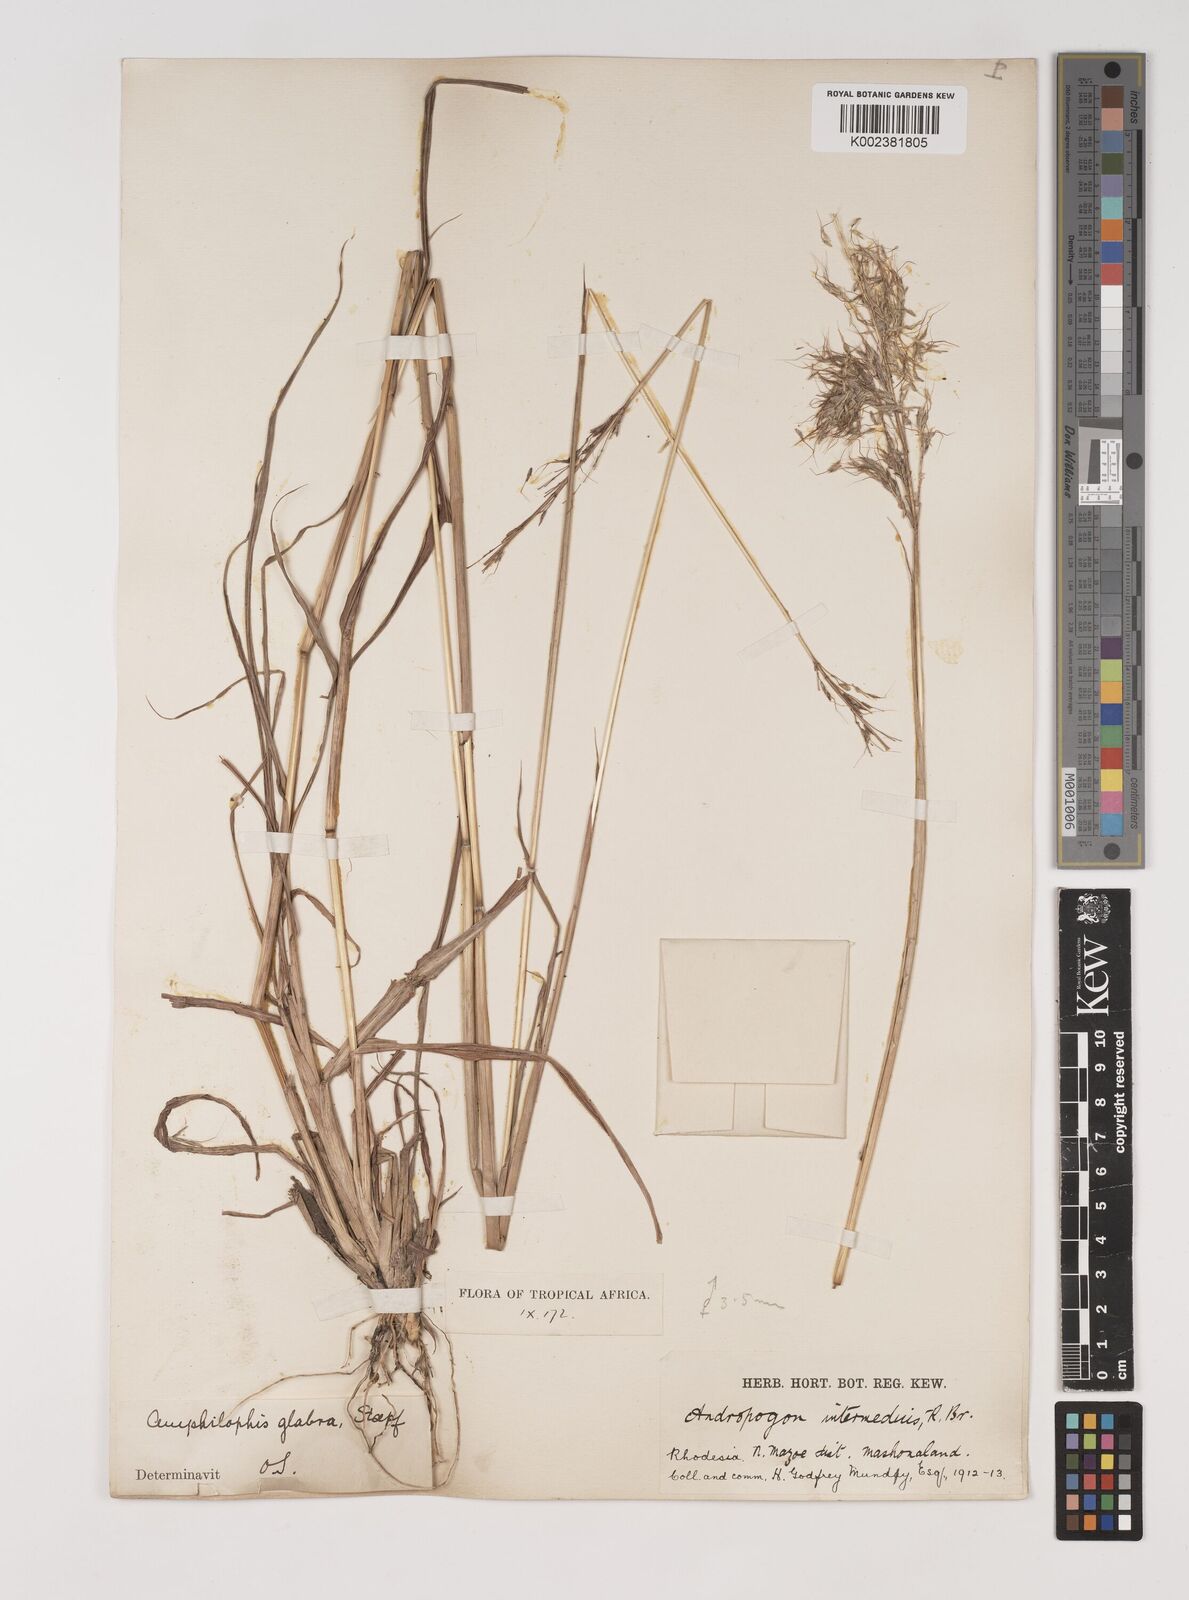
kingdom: Plantae
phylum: Tracheophyta
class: Liliopsida
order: Poales
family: Poaceae
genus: Bothriochloa
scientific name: Bothriochloa bladhii
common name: Caucasian bluestem
